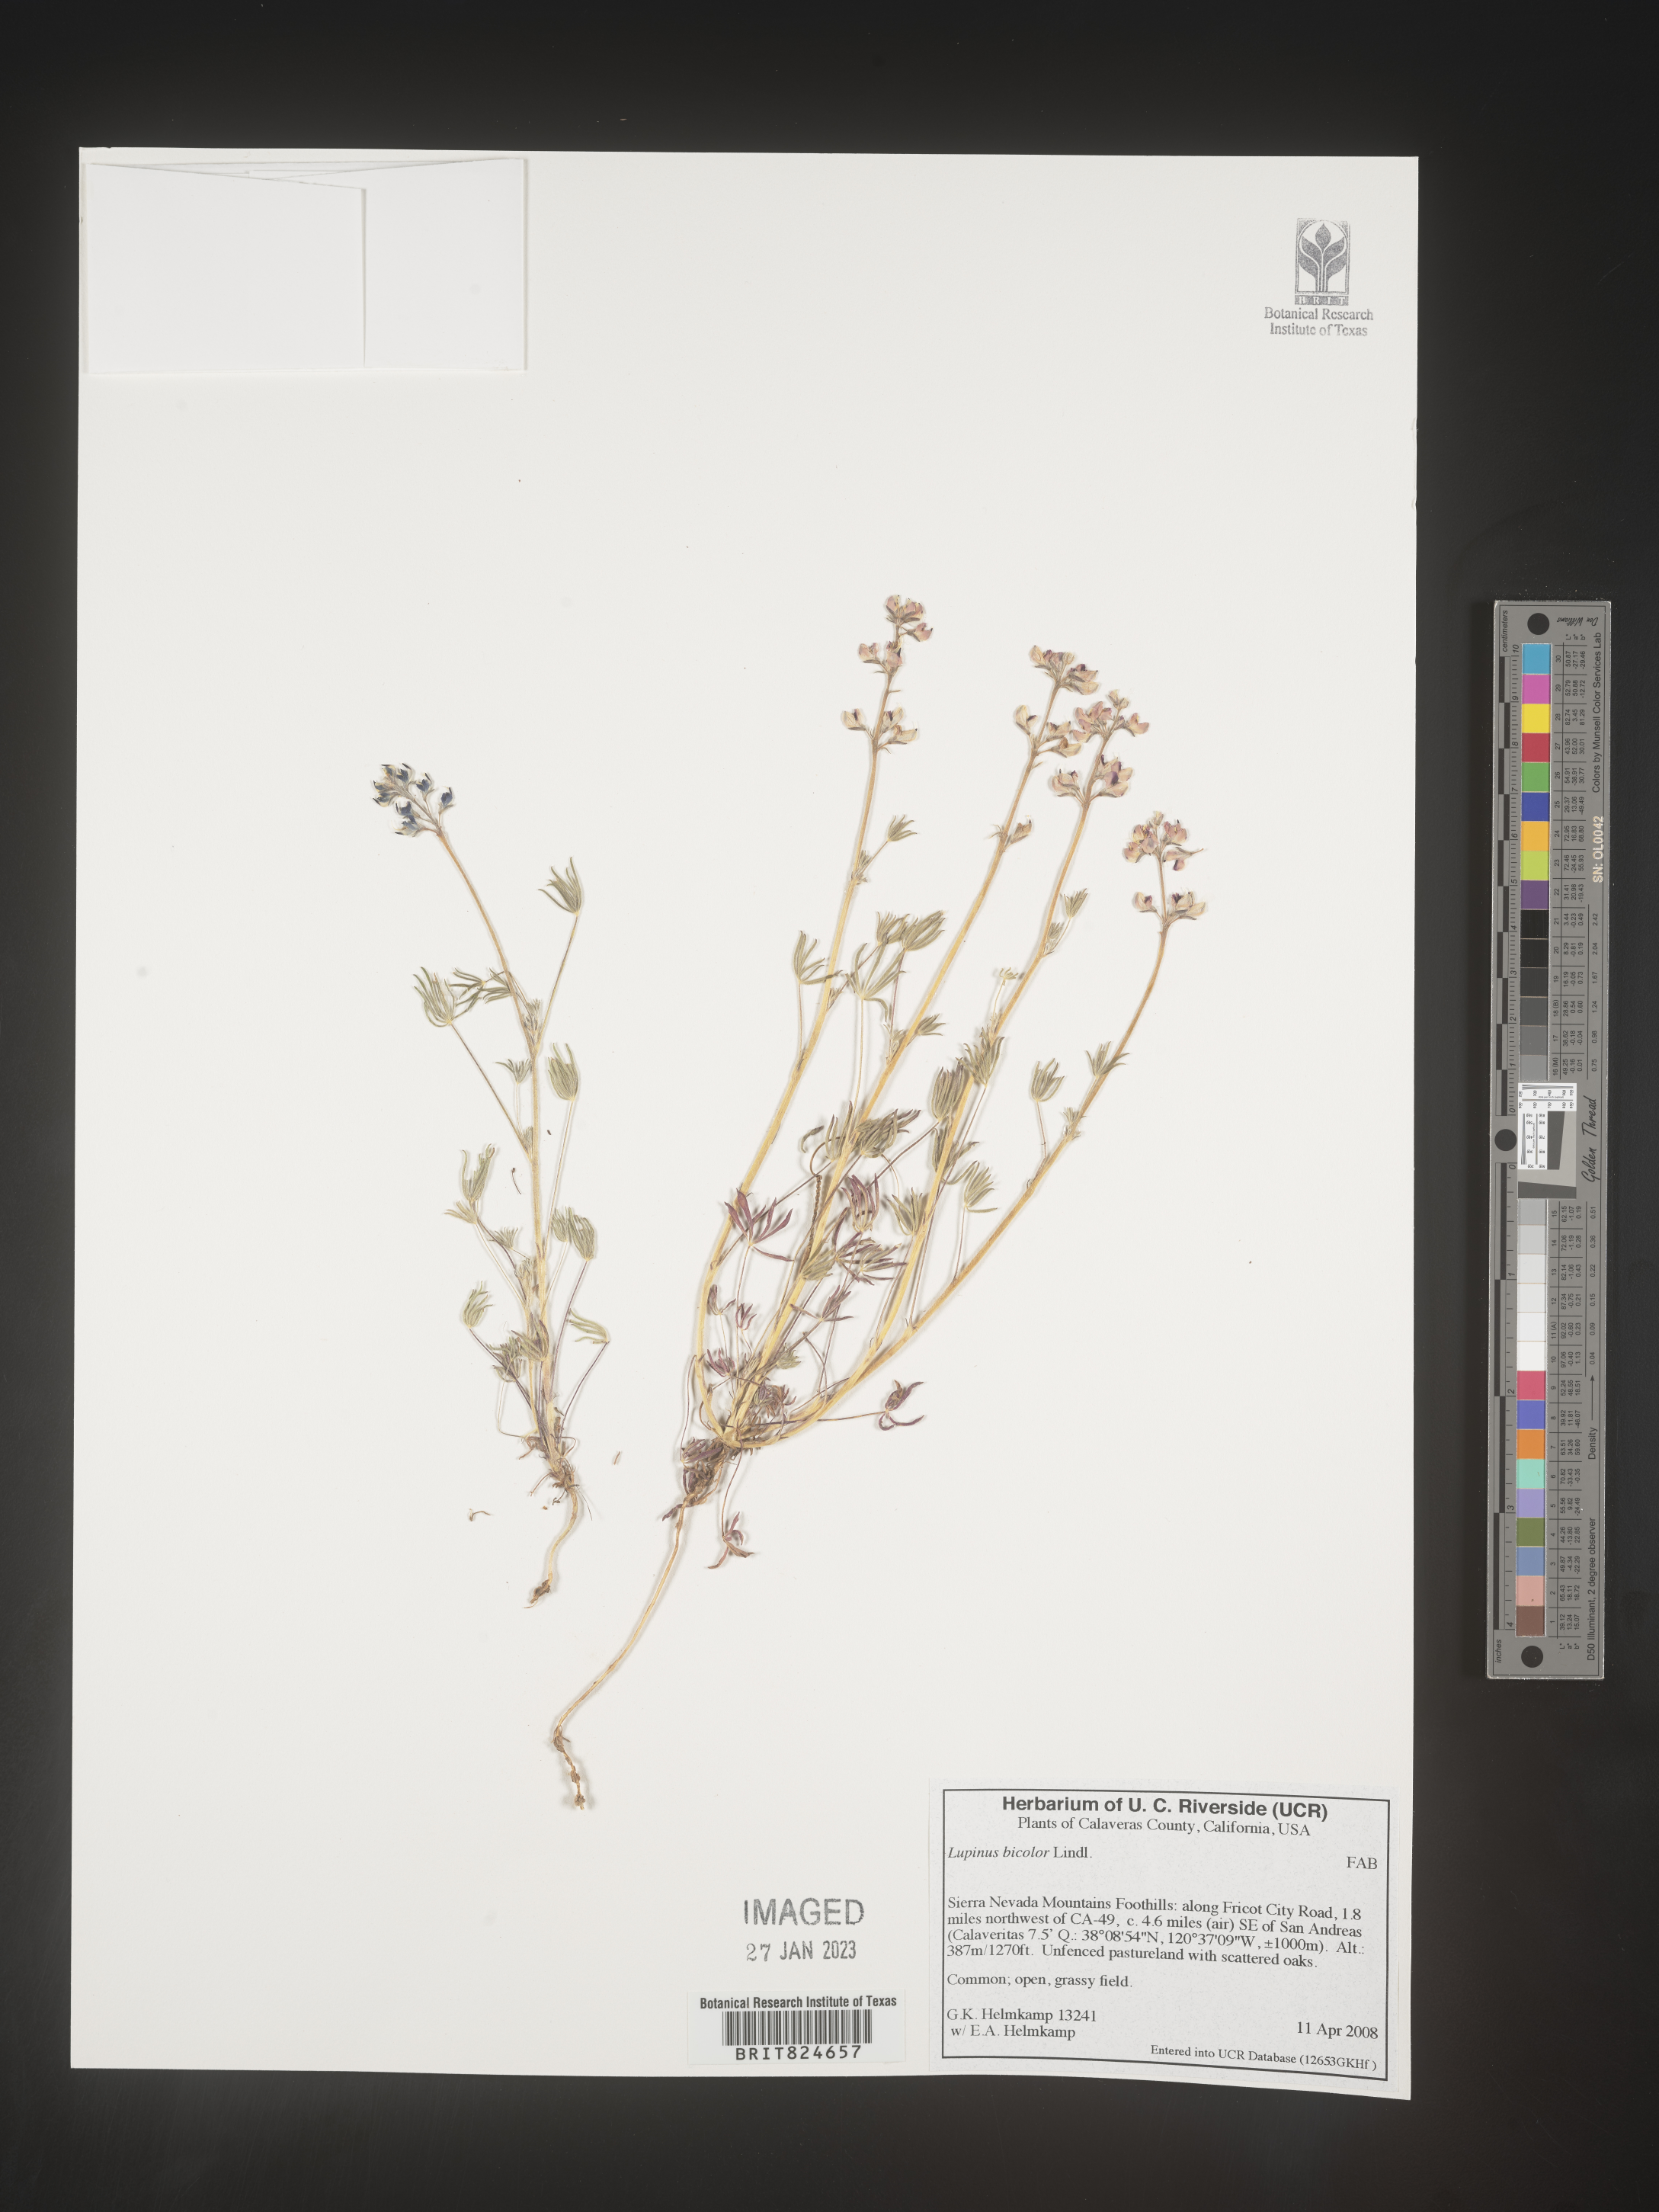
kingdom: Plantae
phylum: Tracheophyta
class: Magnoliopsida
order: Fabales
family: Fabaceae
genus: Lupinus
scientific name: Lupinus bicolor
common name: Miniature lupine
